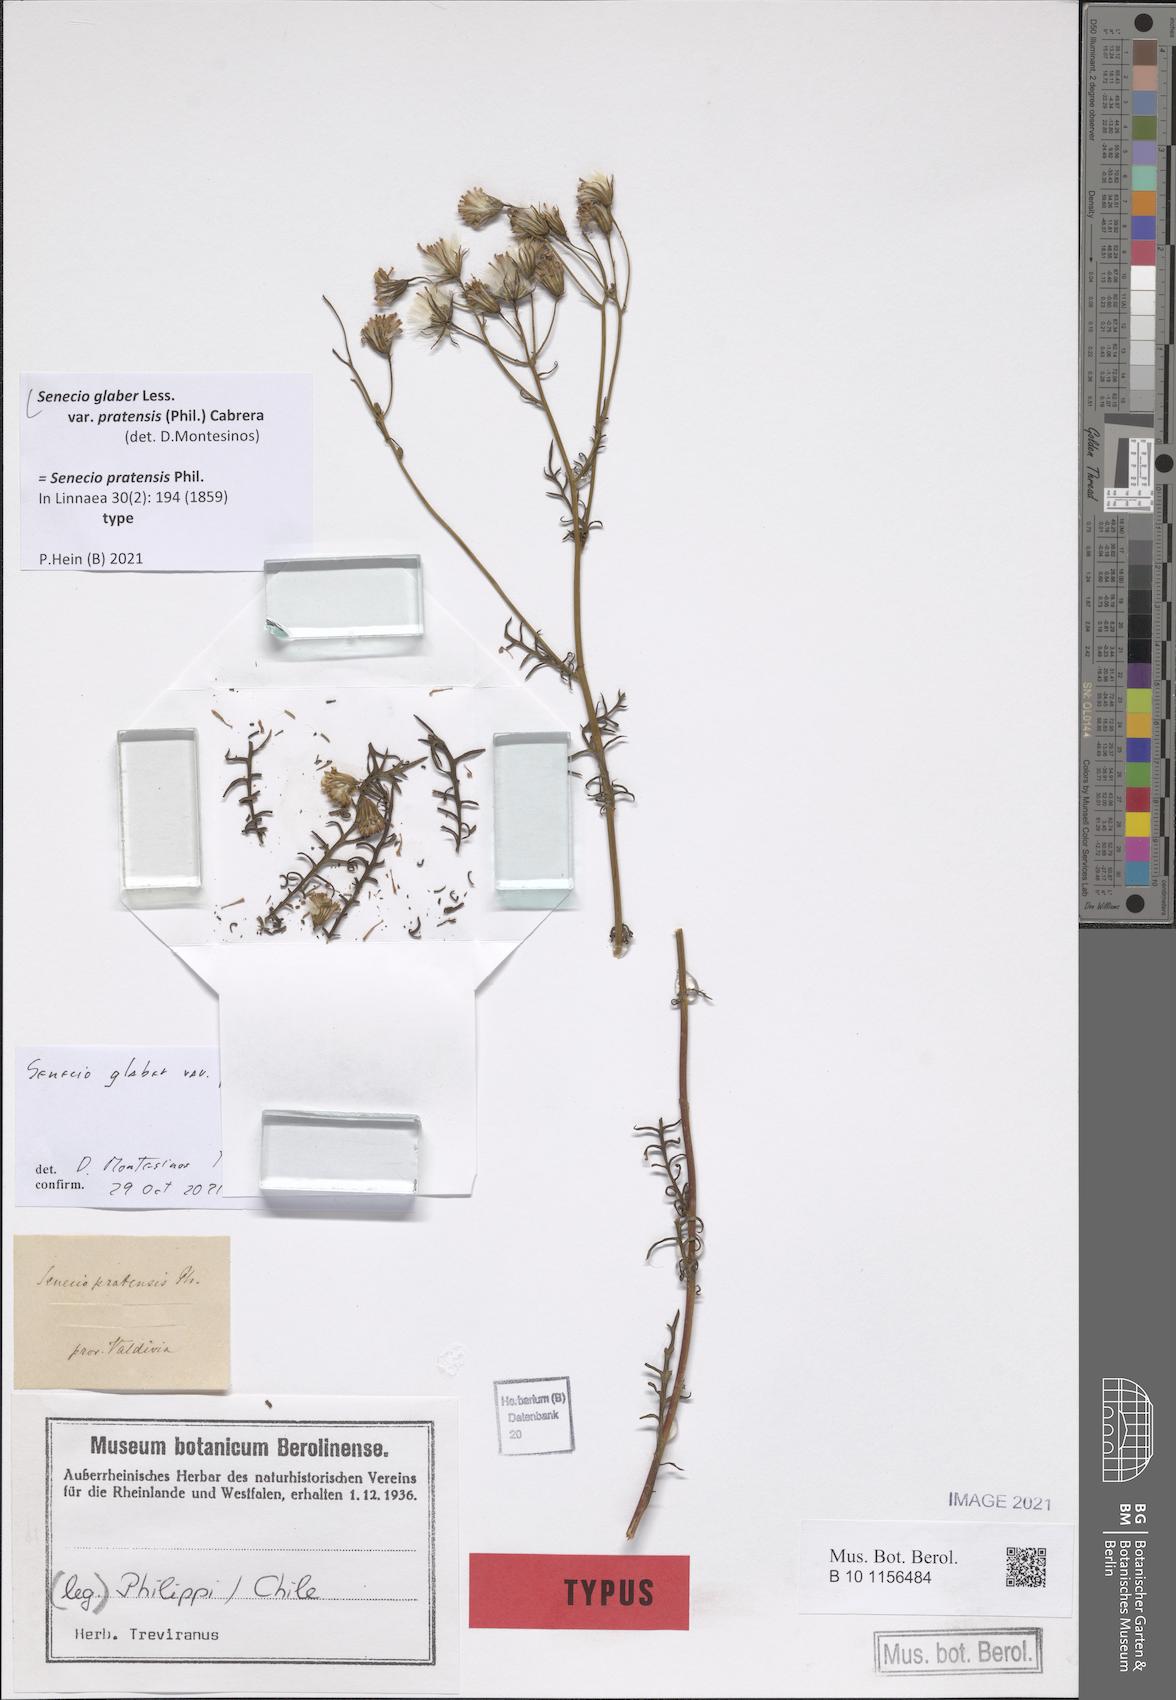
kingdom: Plantae
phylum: Tracheophyta
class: Magnoliopsida
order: Asterales
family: Asteraceae
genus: Senecio
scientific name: Senecio glaber
